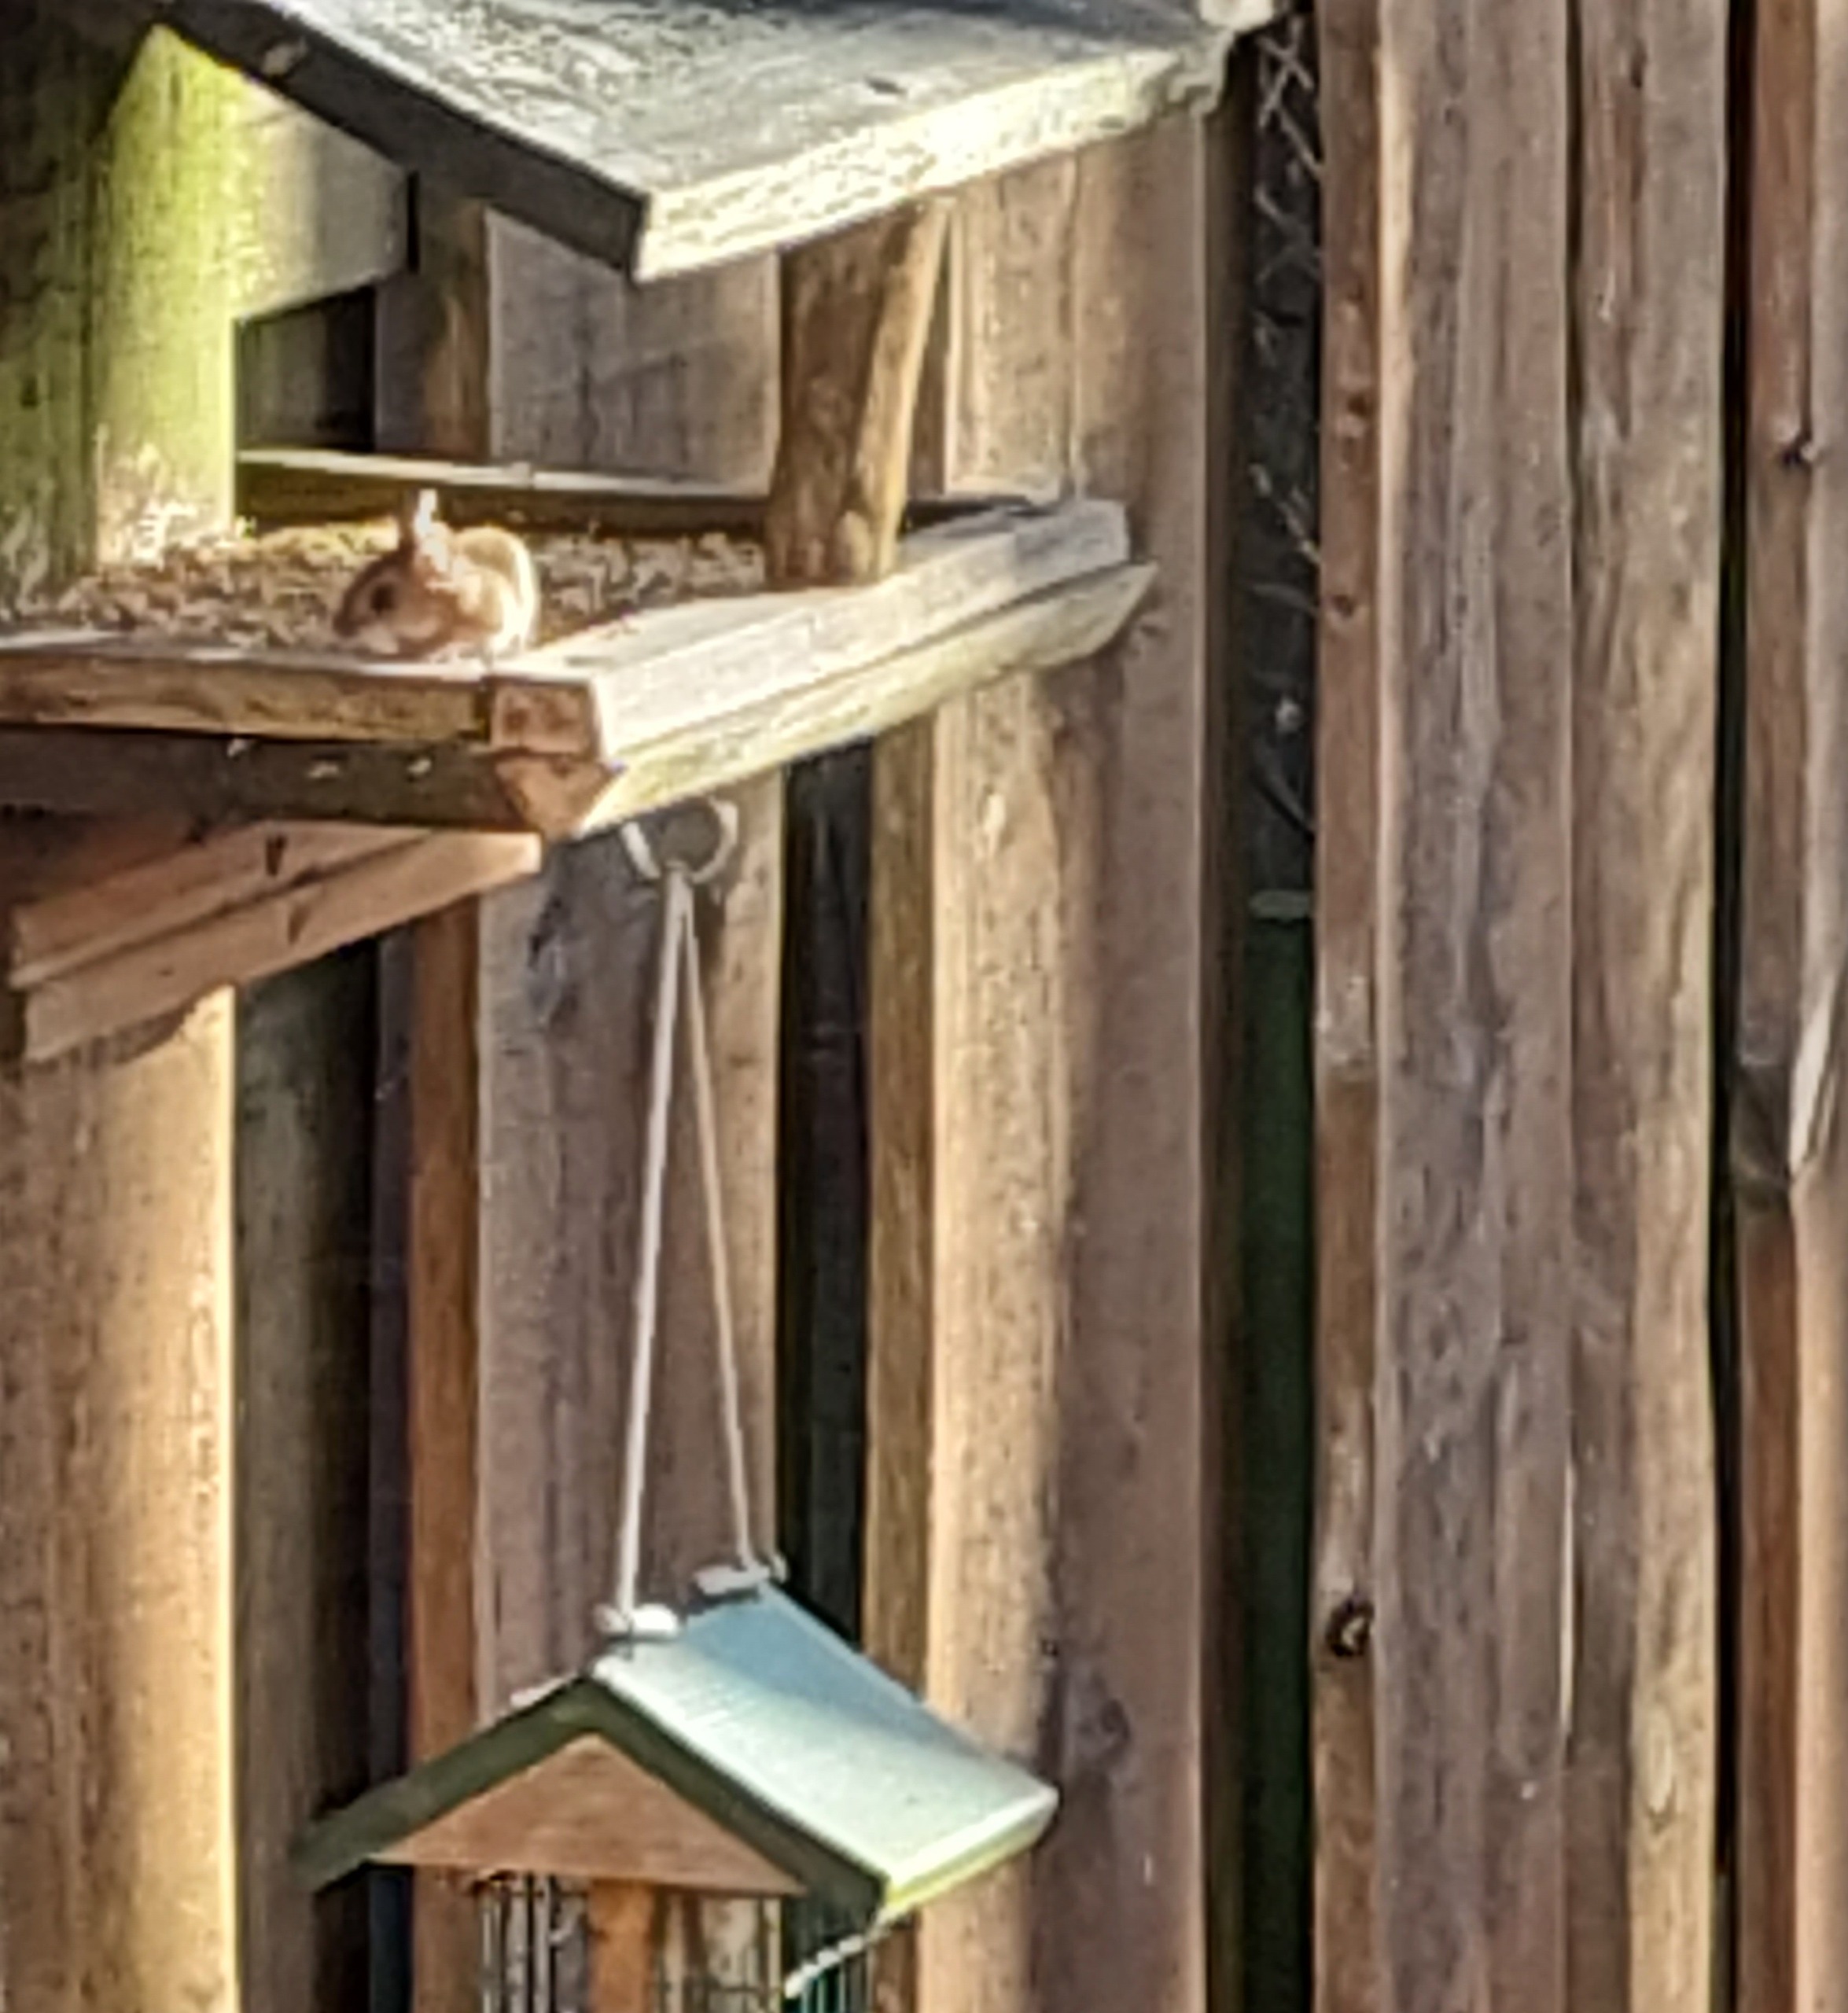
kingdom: Animalia
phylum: Chordata
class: Mammalia
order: Rodentia
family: Muridae
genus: Apodemus
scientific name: Apodemus flavicollis
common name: Halsbåndmus
